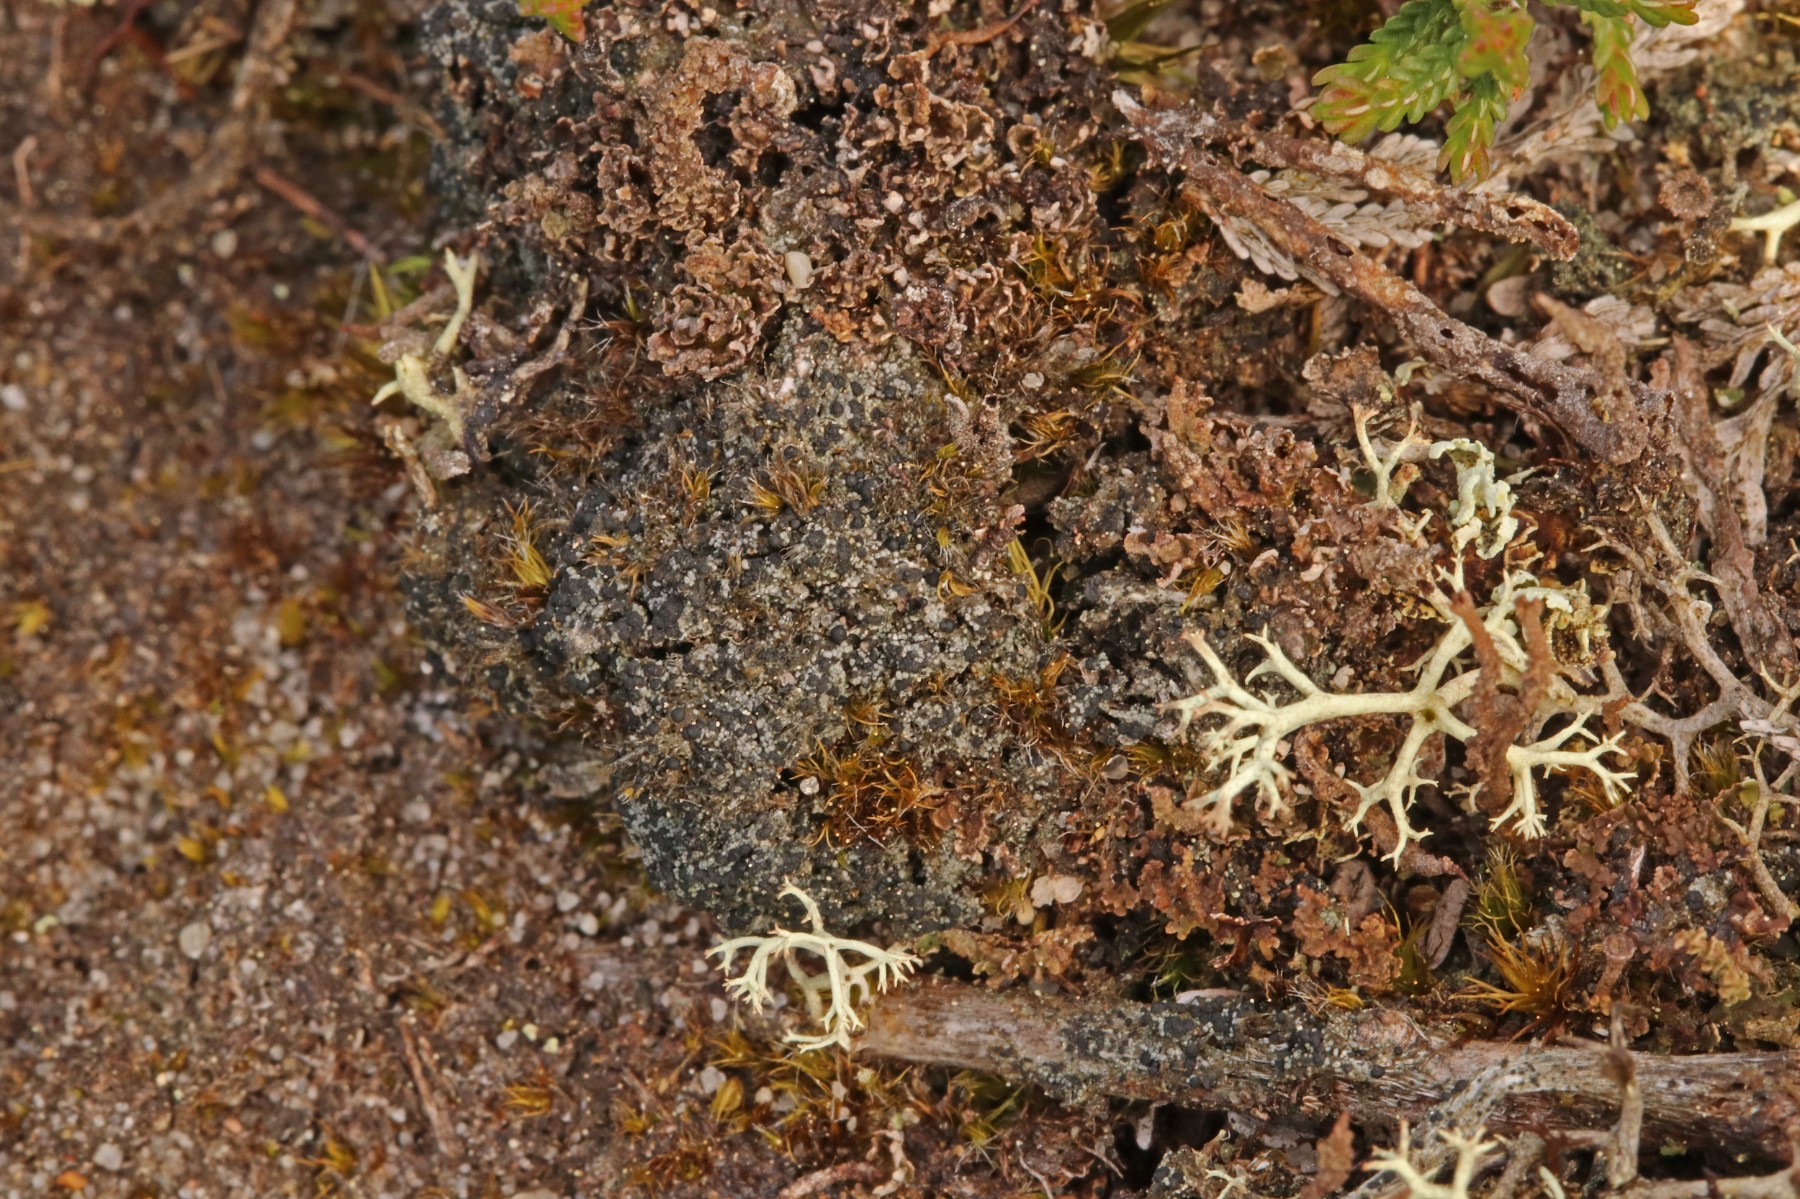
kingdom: Fungi
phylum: Ascomycota
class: Lecanoromycetes
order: Lecanorales
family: Byssolomataceae
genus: Micarea
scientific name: Micarea lignaria
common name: tørve-knaplav
